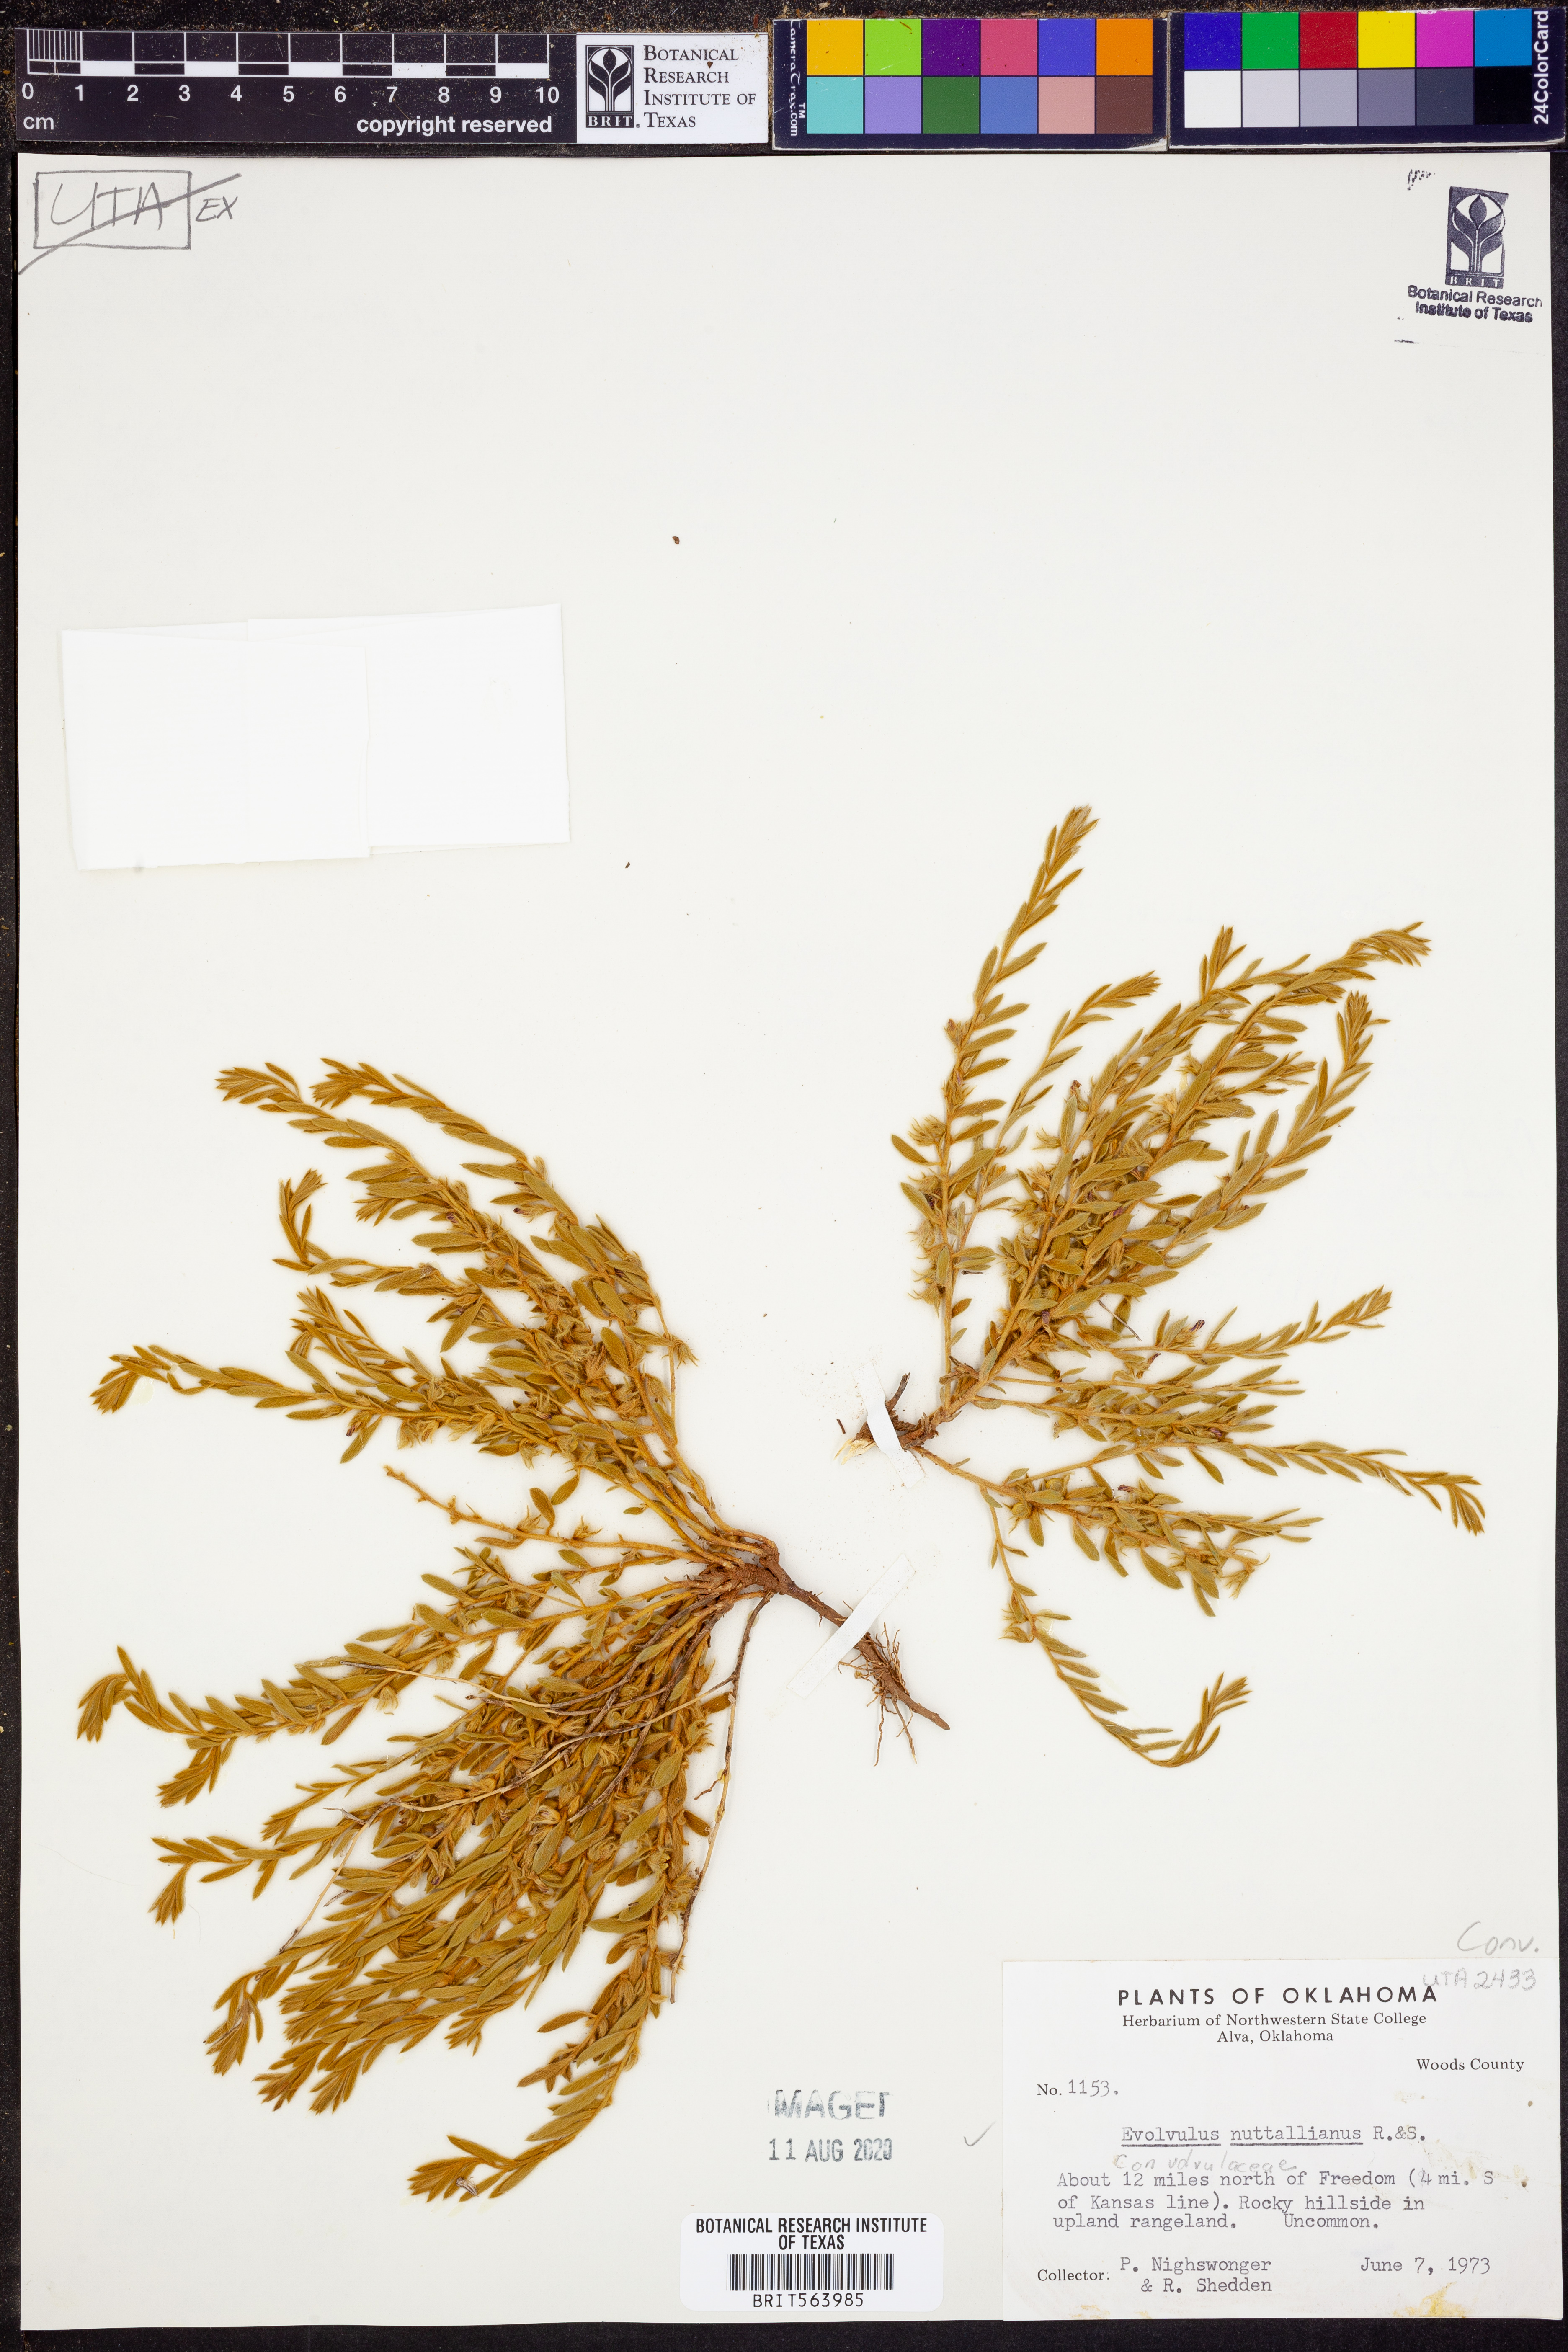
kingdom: Plantae
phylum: Tracheophyta
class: Magnoliopsida
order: Solanales
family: Convolvulaceae
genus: Evolvulus
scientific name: Evolvulus nuttallianus
